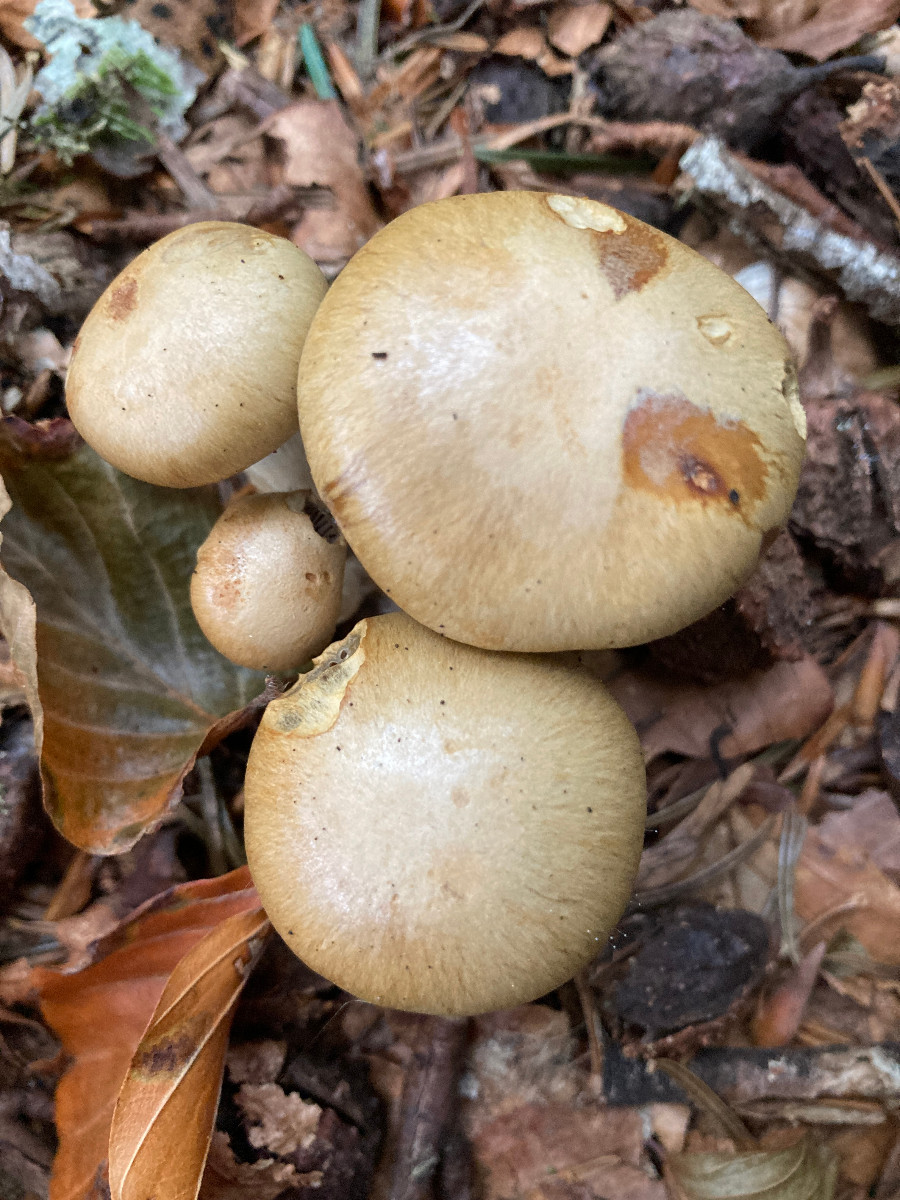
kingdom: Fungi
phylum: Basidiomycota
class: Agaricomycetes
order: Agaricales
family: Cortinariaceae
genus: Cortinarius
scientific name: Cortinarius subtortus
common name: olivengul slørhat
